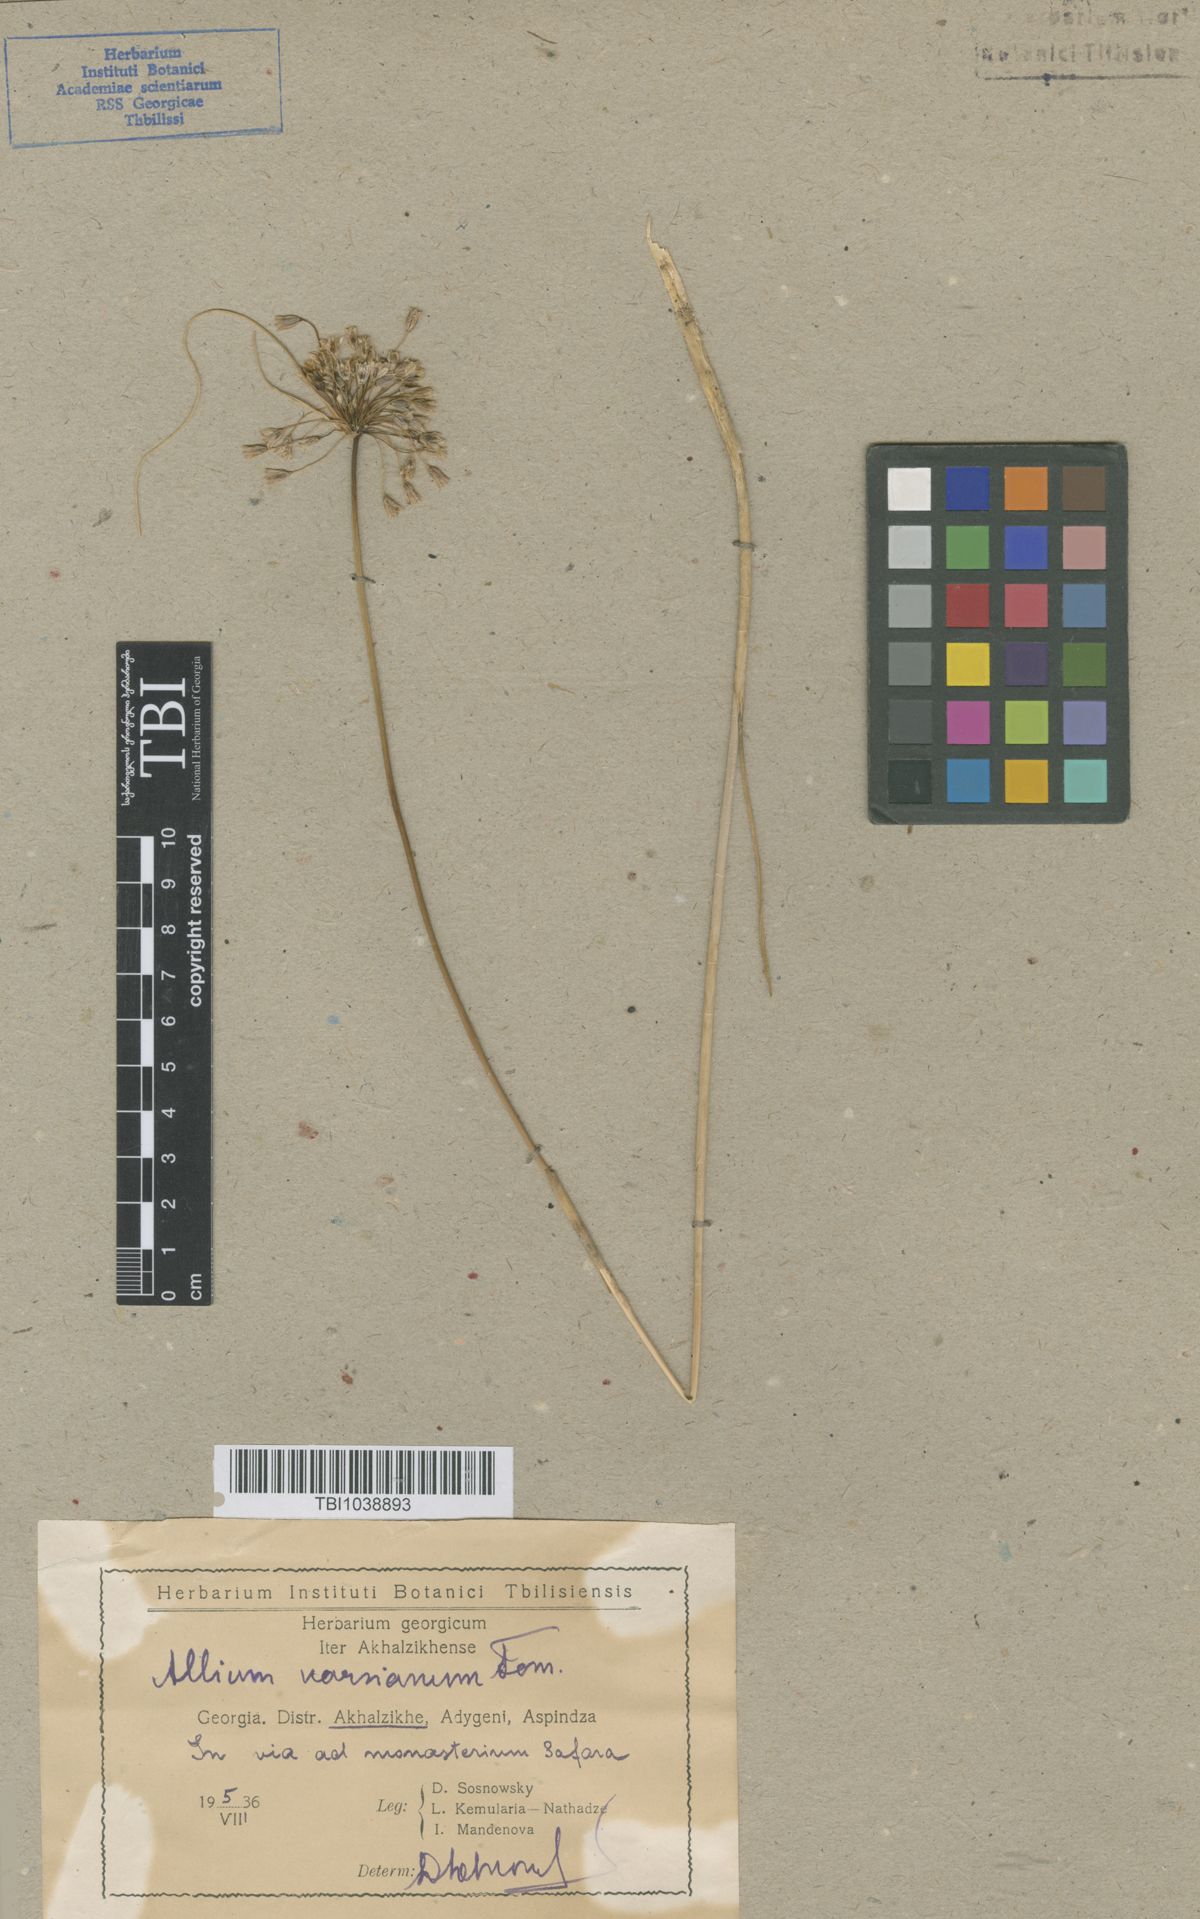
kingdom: Plantae
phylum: Tracheophyta
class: Liliopsida
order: Asparagales
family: Amaryllidaceae
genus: Allium
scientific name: Allium paniculatum
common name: Pale garlic
